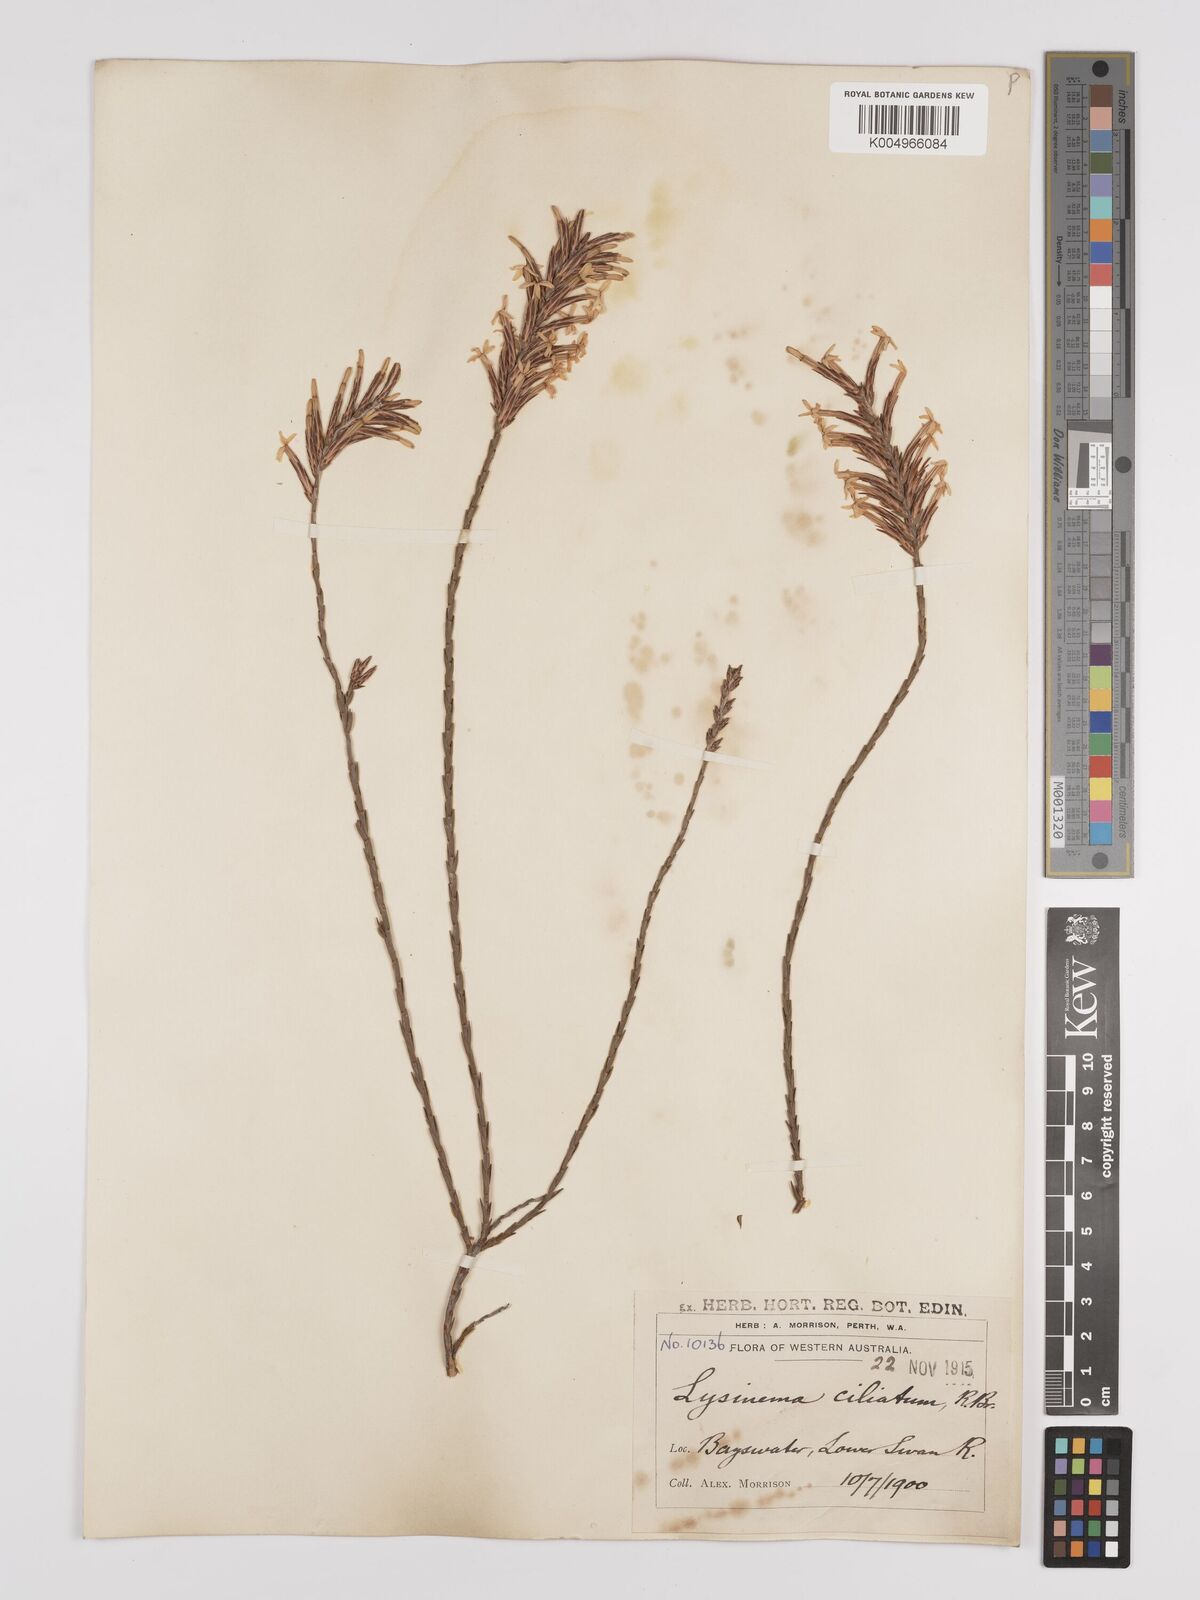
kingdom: Plantae
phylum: Tracheophyta
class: Magnoliopsida
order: Ericales
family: Ericaceae
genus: Lysinema
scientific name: Lysinema ciliatum
